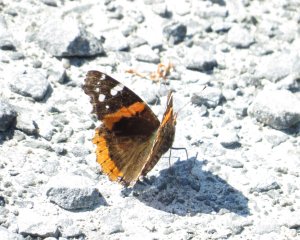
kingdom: Animalia
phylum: Arthropoda
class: Insecta
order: Lepidoptera
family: Nymphalidae
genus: Vanessa
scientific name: Vanessa atalanta
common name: Red Admiral
